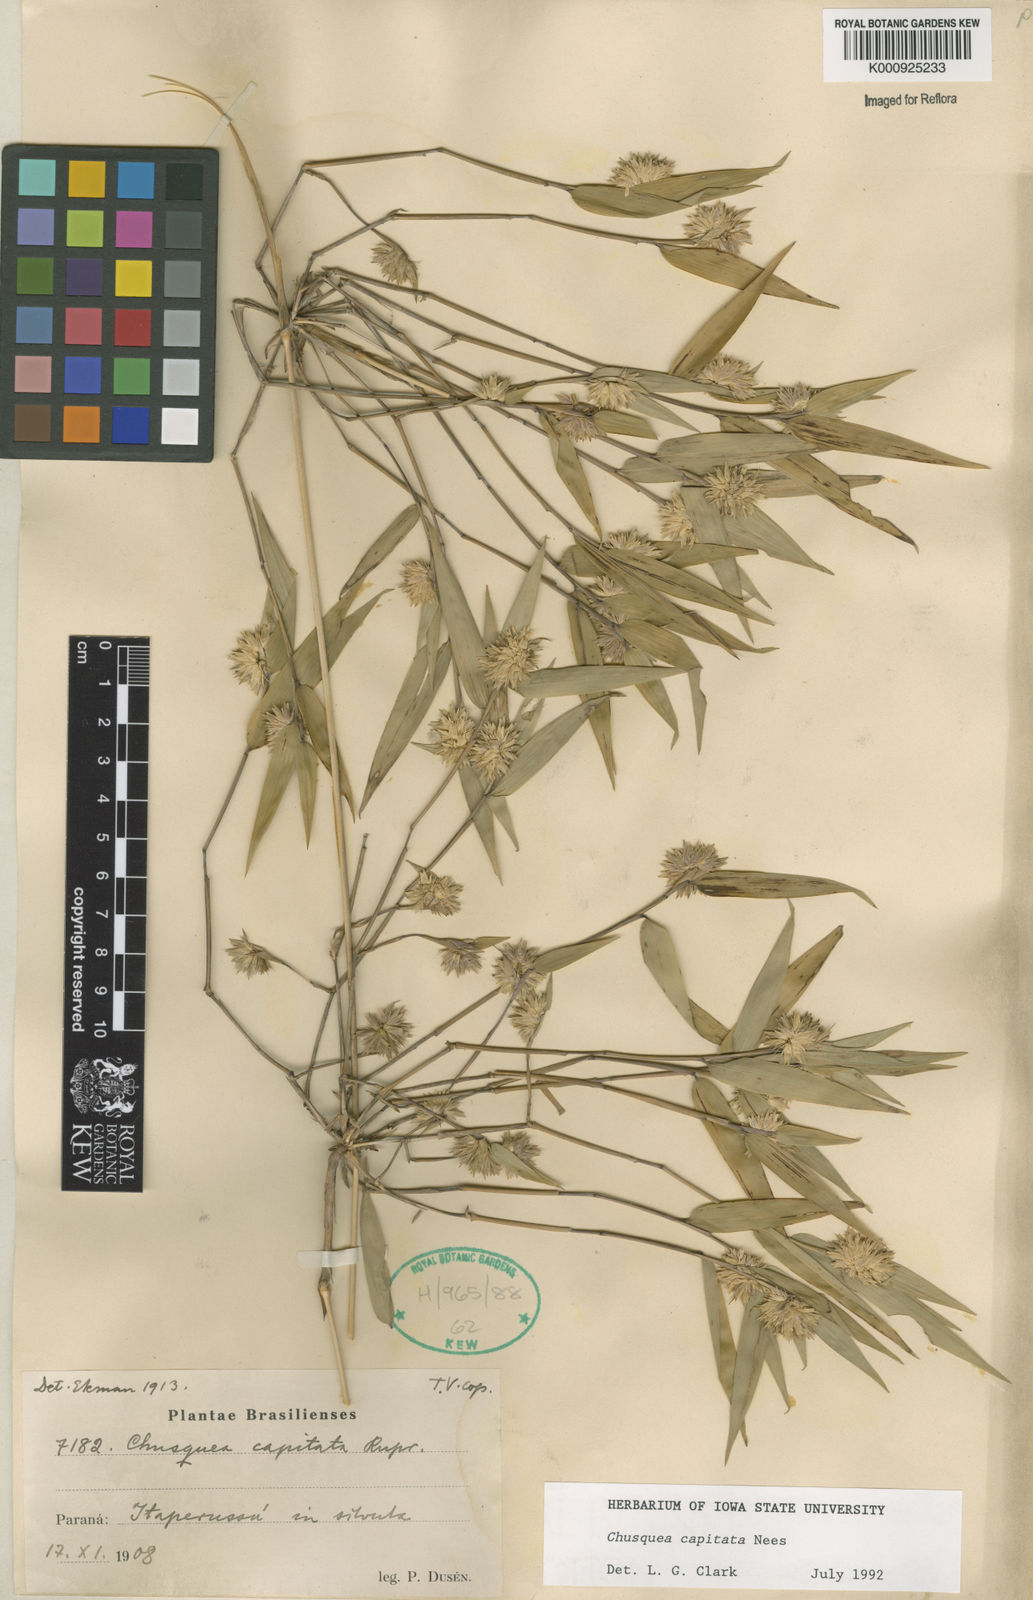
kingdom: Plantae
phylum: Tracheophyta
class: Liliopsida
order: Poales
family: Poaceae
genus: Chusquea
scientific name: Chusquea capitata
